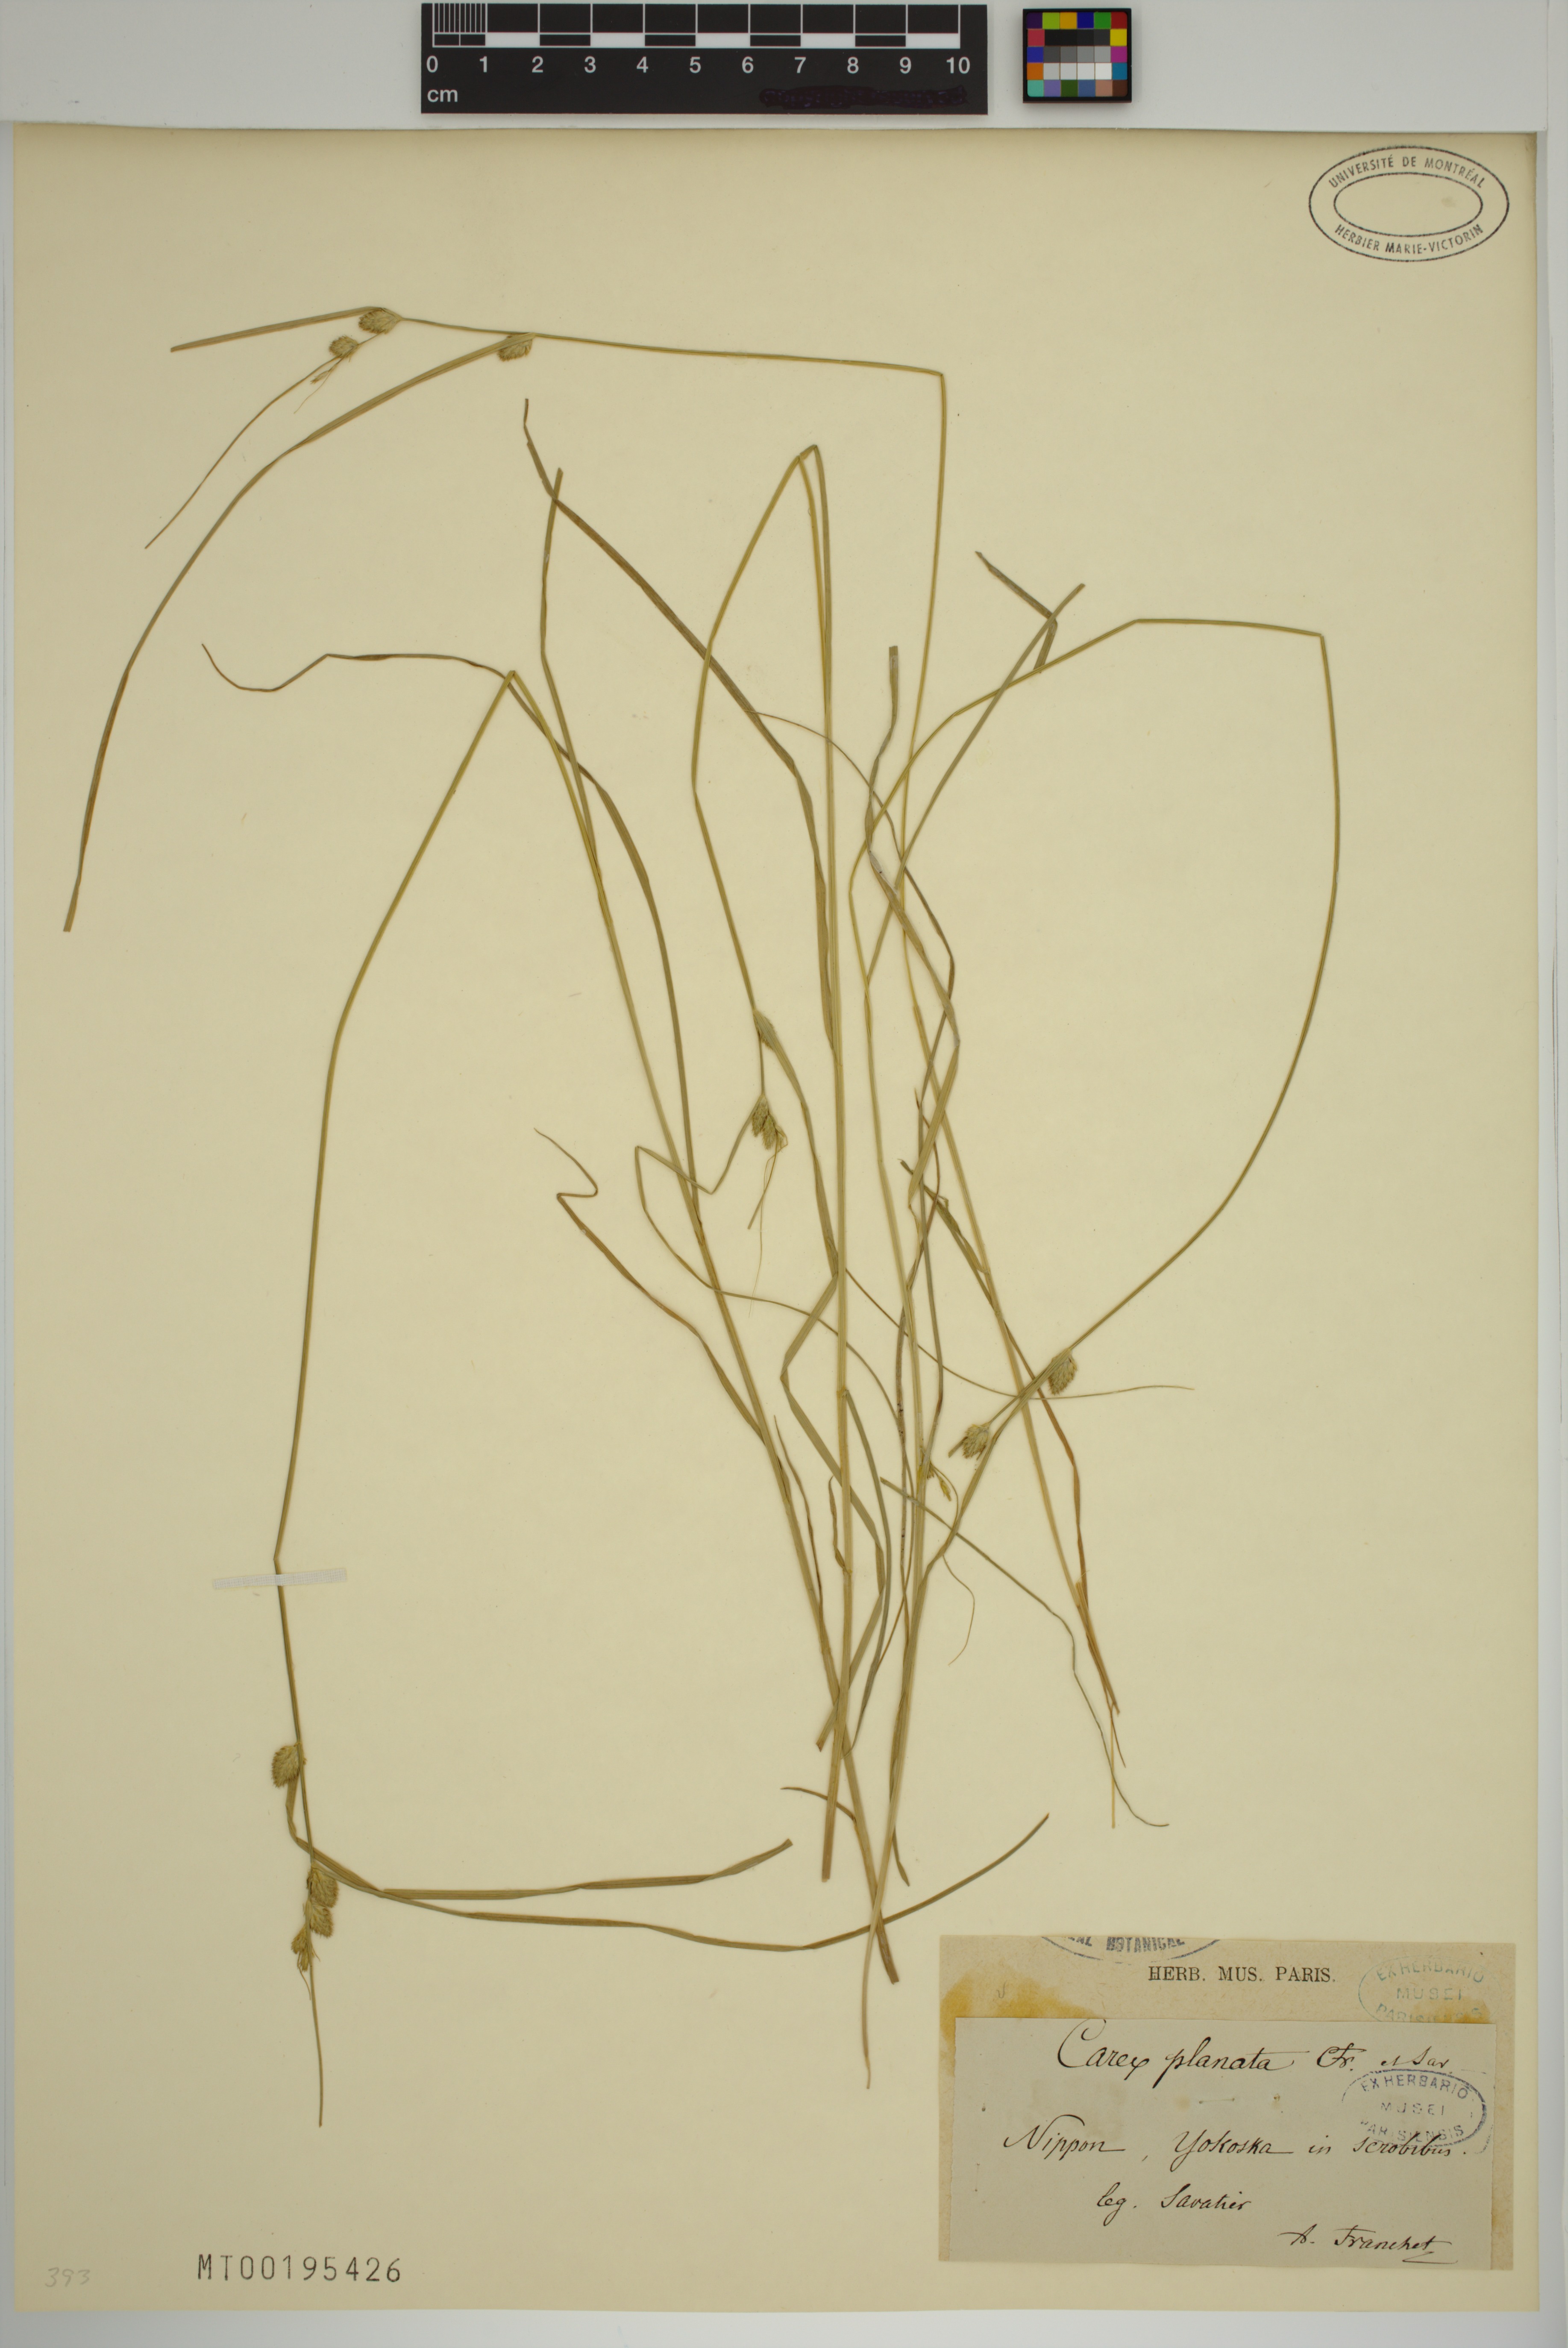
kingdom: Plantae
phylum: Tracheophyta
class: Liliopsida
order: Poales
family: Cyperaceae
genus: Carex
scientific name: Carex planata
